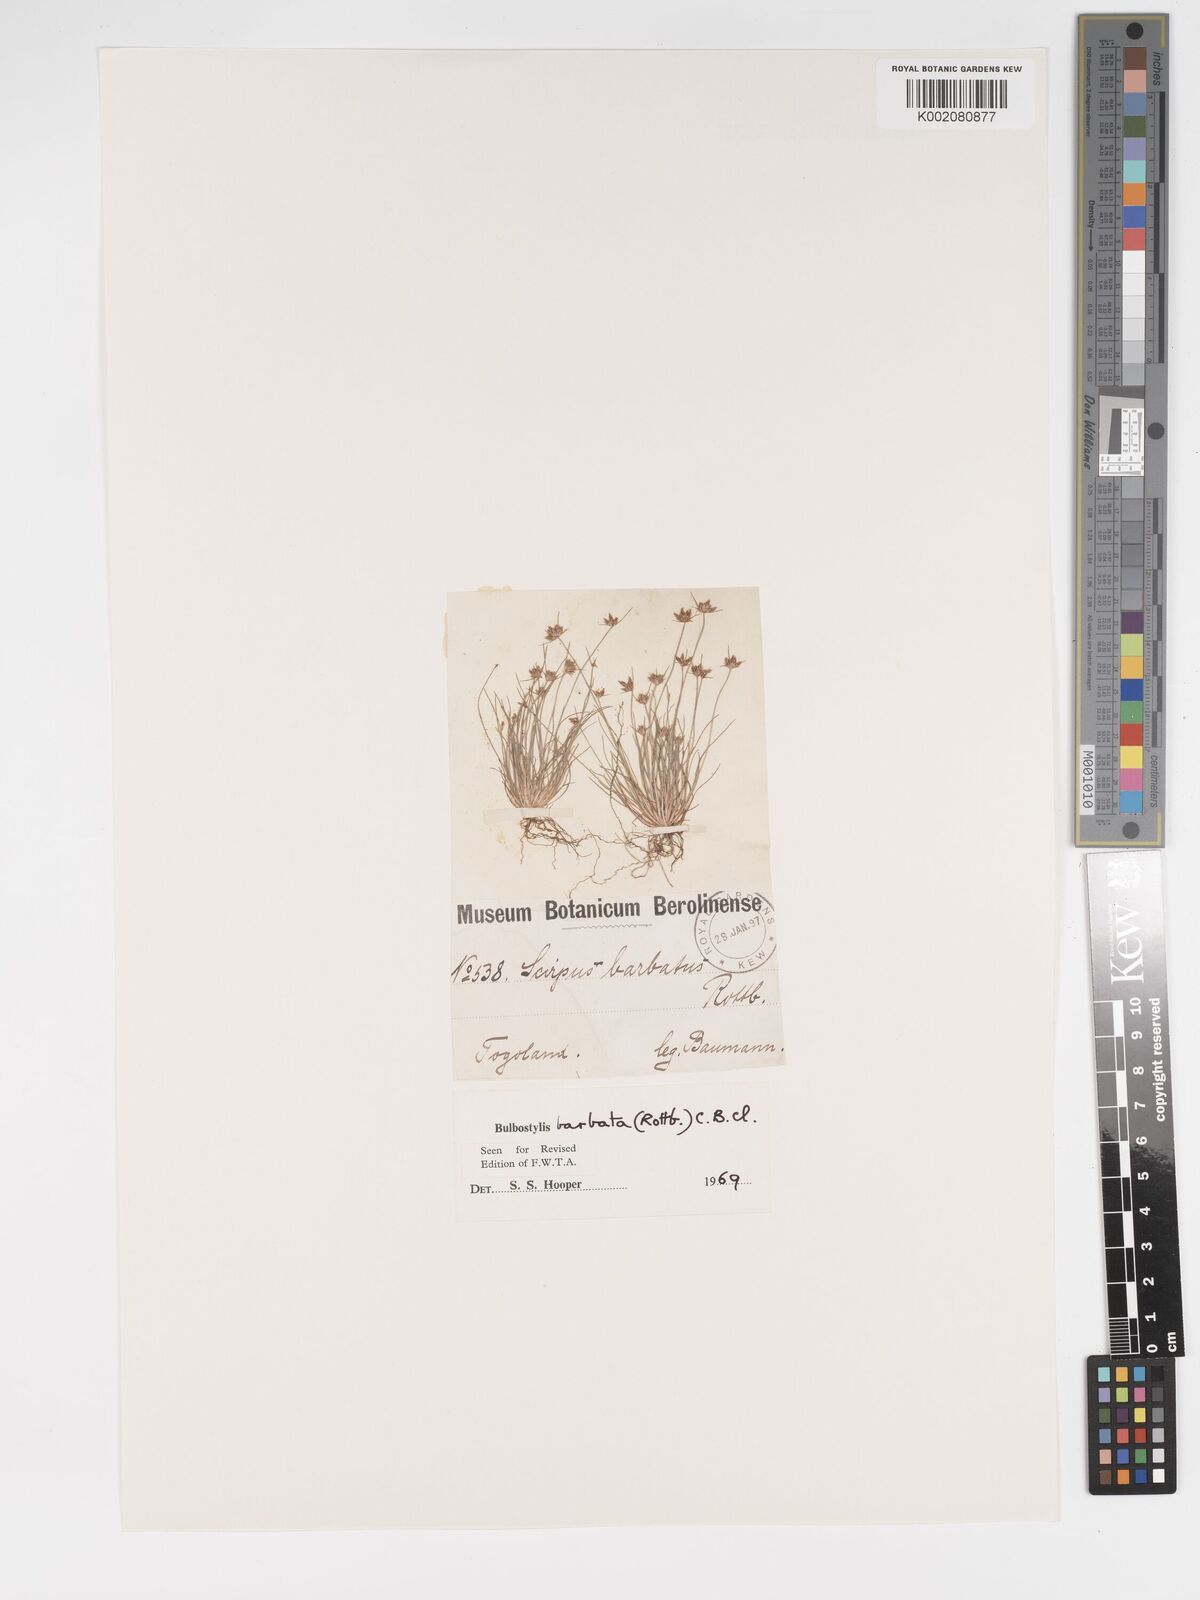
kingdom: Plantae
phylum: Tracheophyta
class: Liliopsida
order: Poales
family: Cyperaceae
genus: Bulbostylis
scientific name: Bulbostylis barbata
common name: Watergrass
